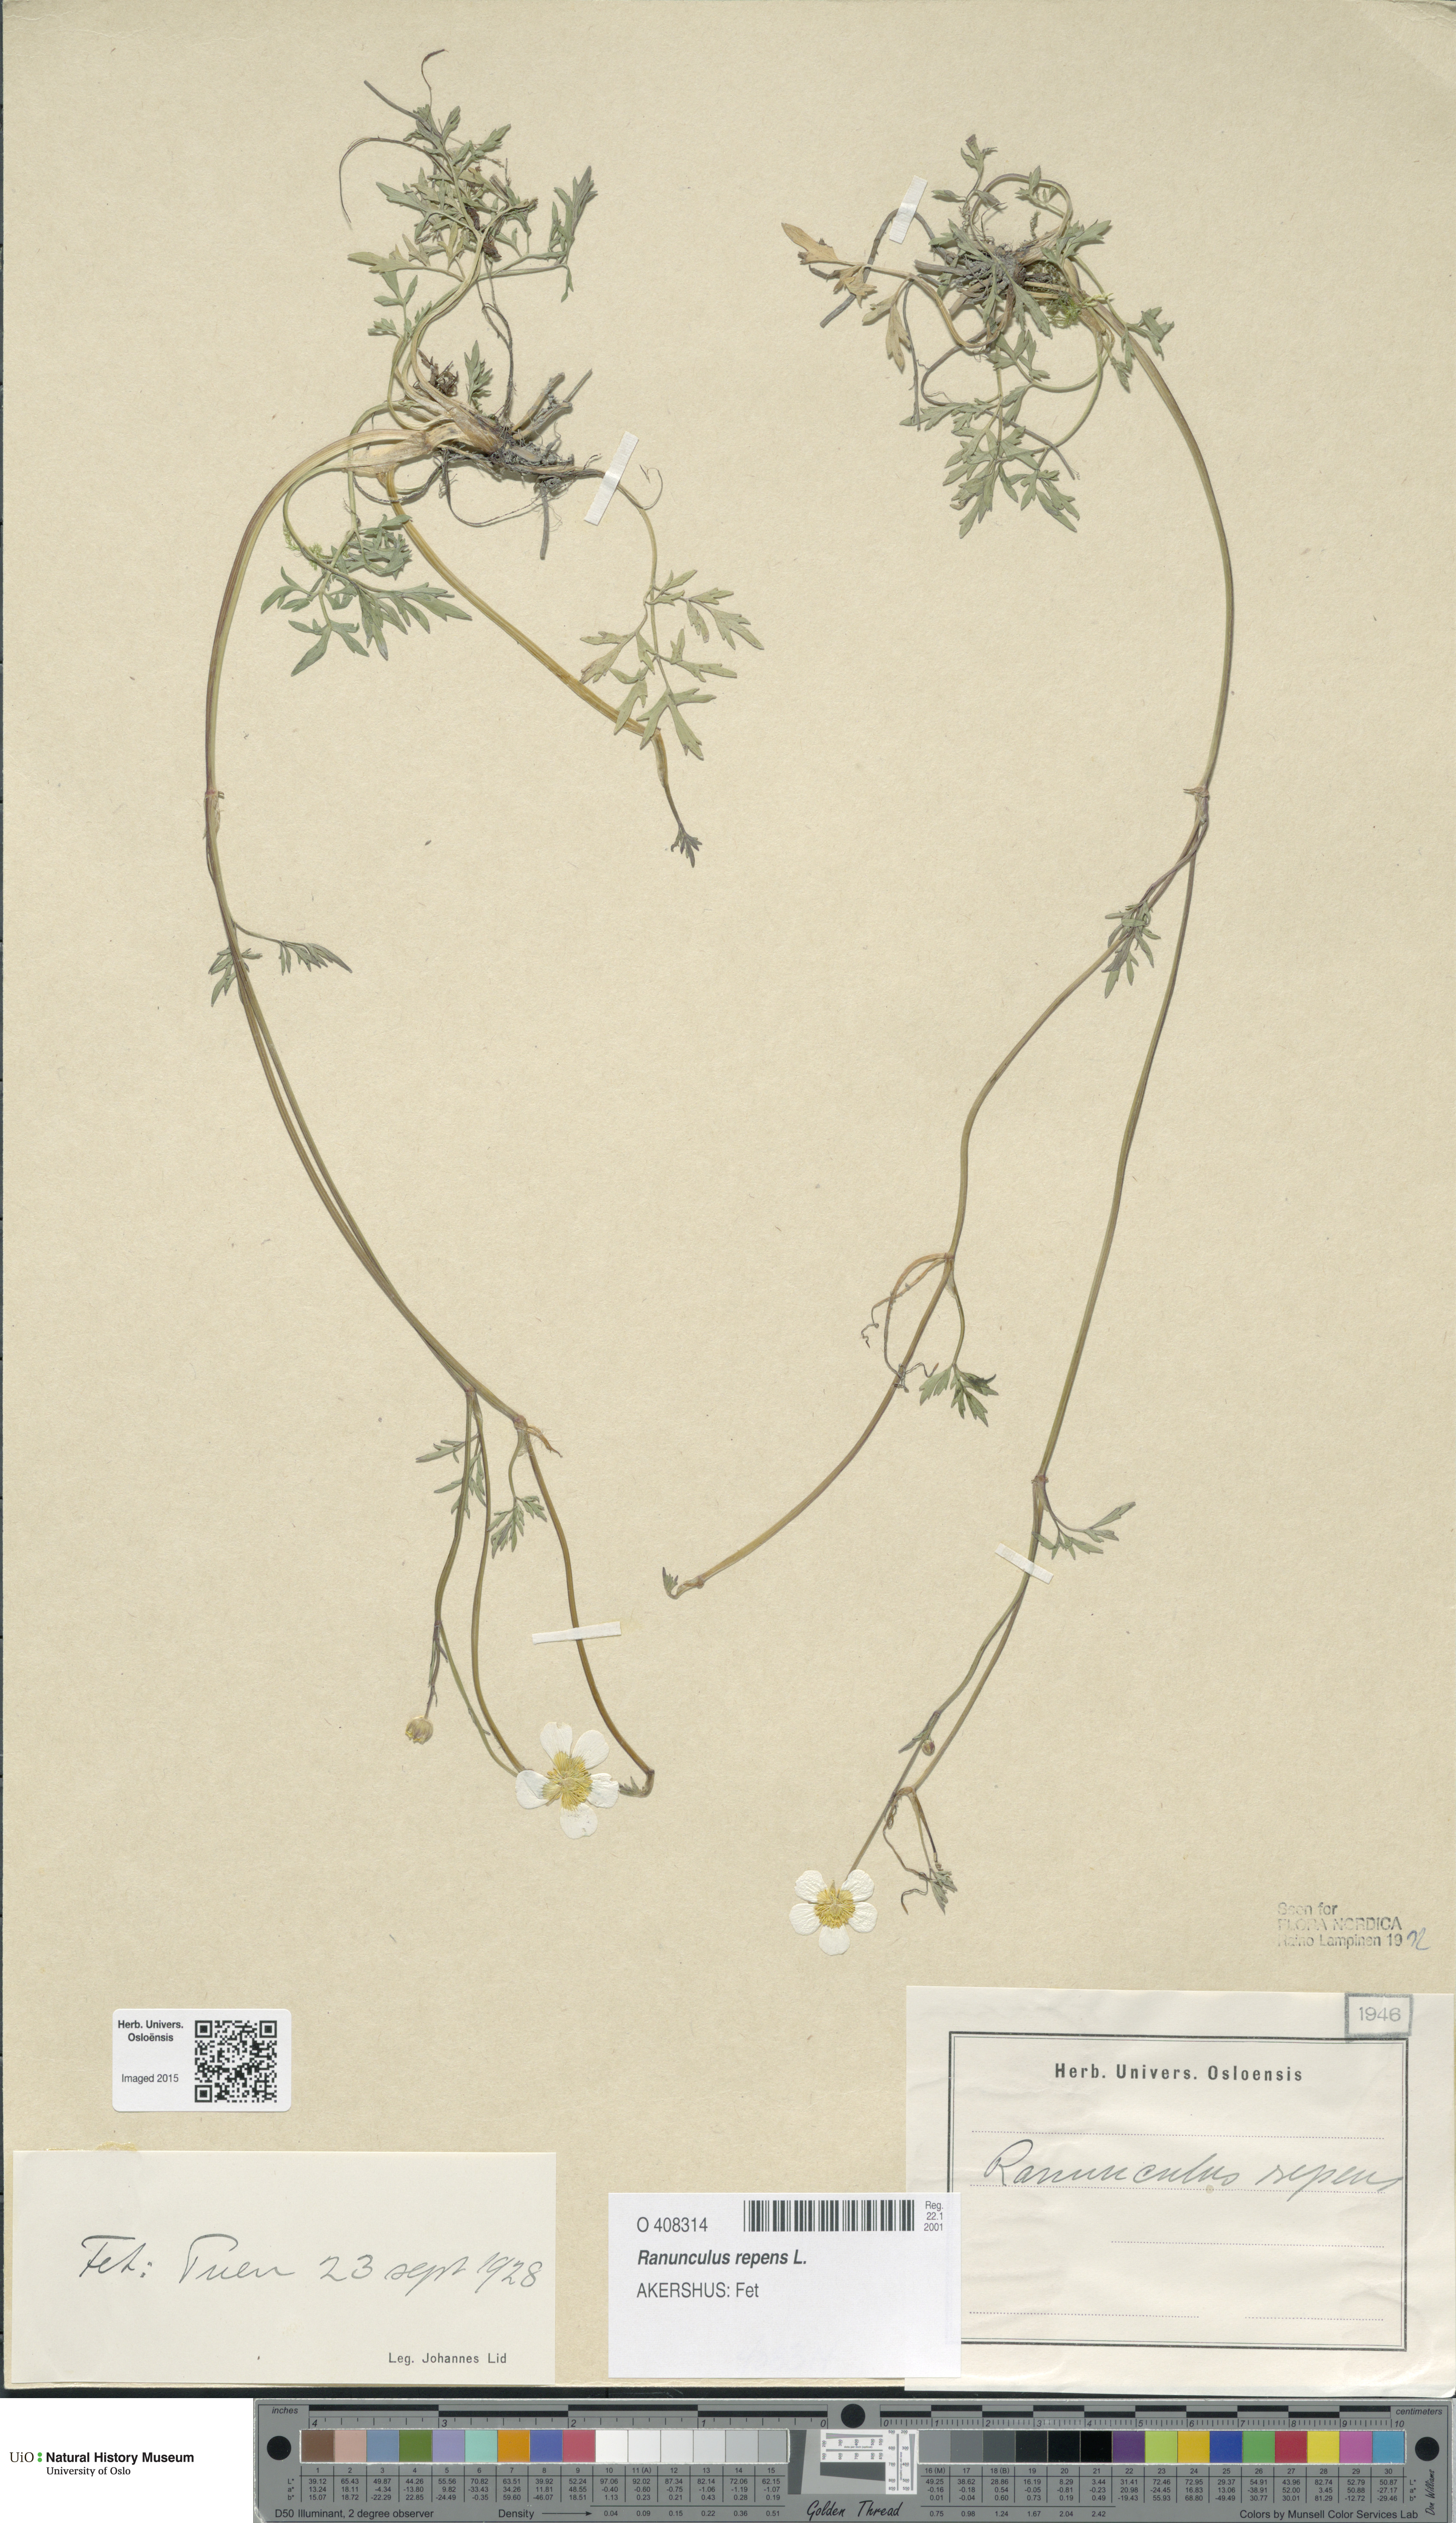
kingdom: Plantae
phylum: Tracheophyta
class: Magnoliopsida
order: Ranunculales
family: Ranunculaceae
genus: Ranunculus
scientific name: Ranunculus repens
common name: Creeping buttercup
